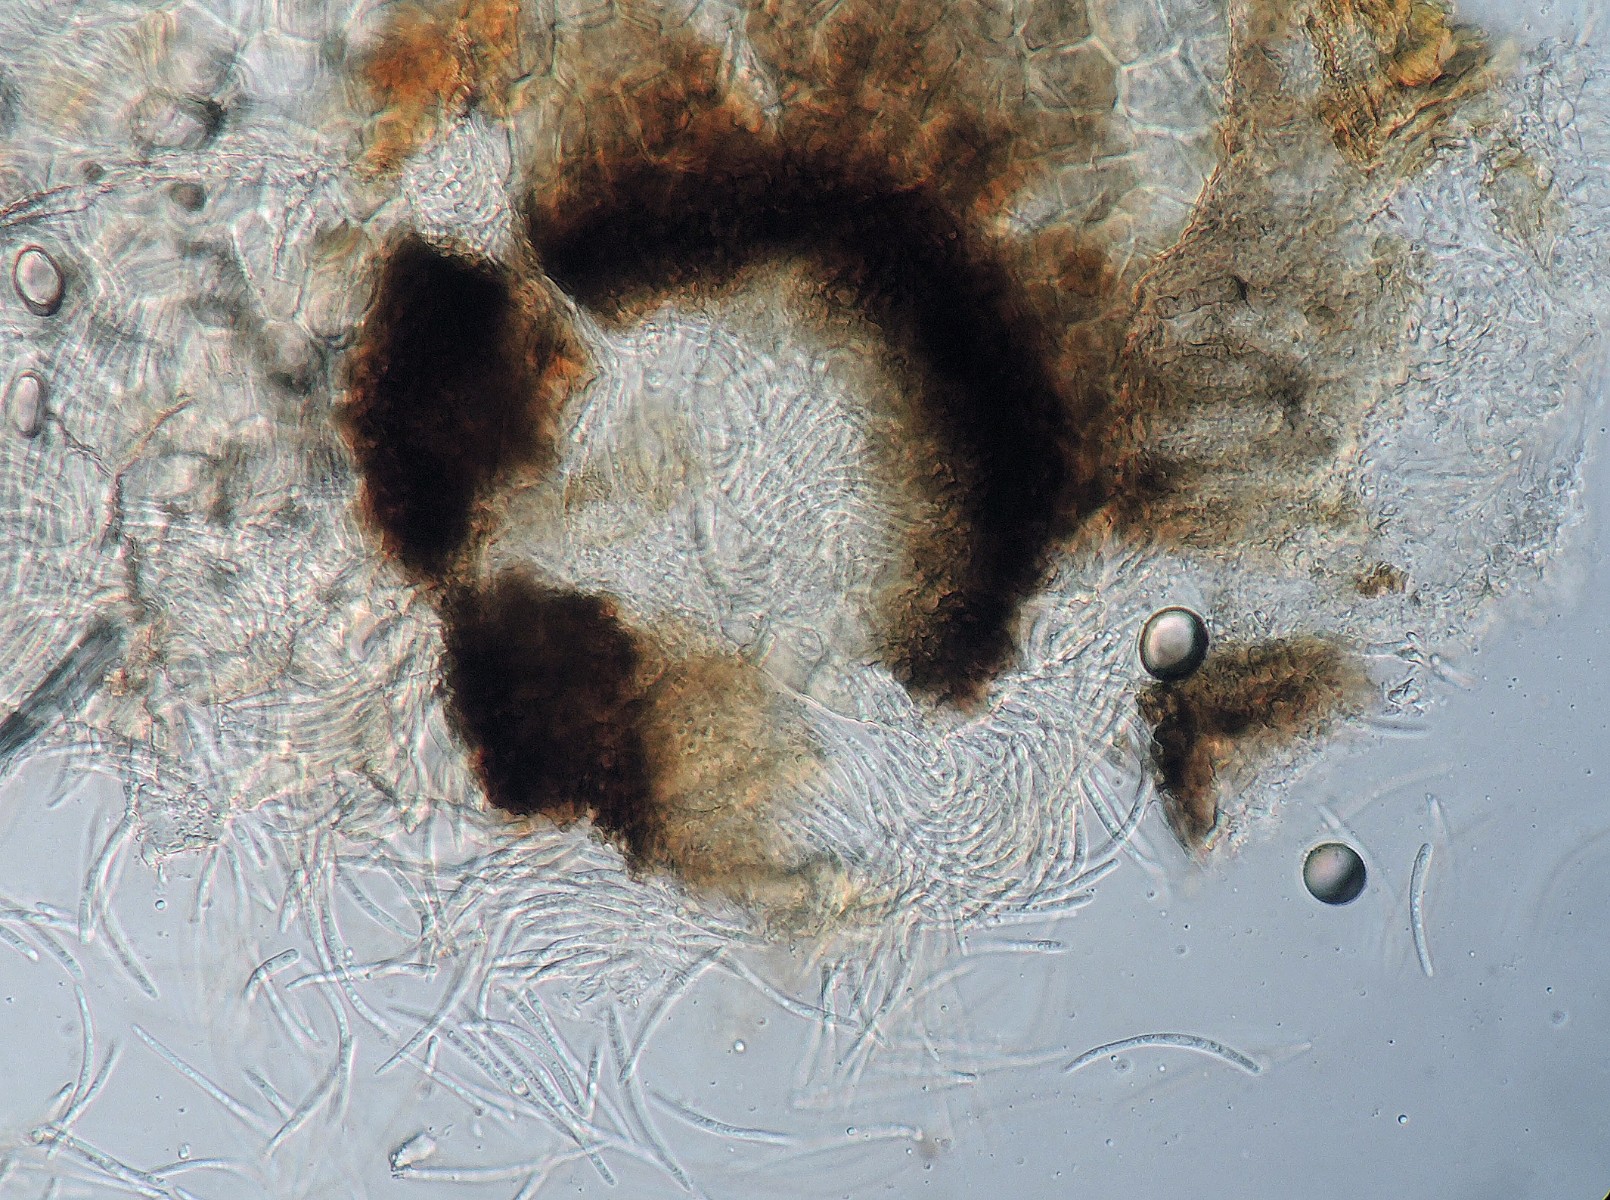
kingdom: Fungi
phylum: Ascomycota
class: Dothideomycetes
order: Mycosphaerellales
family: Mycosphaerellaceae
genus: Mycosphaerella
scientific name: Mycosphaerella salicicola
